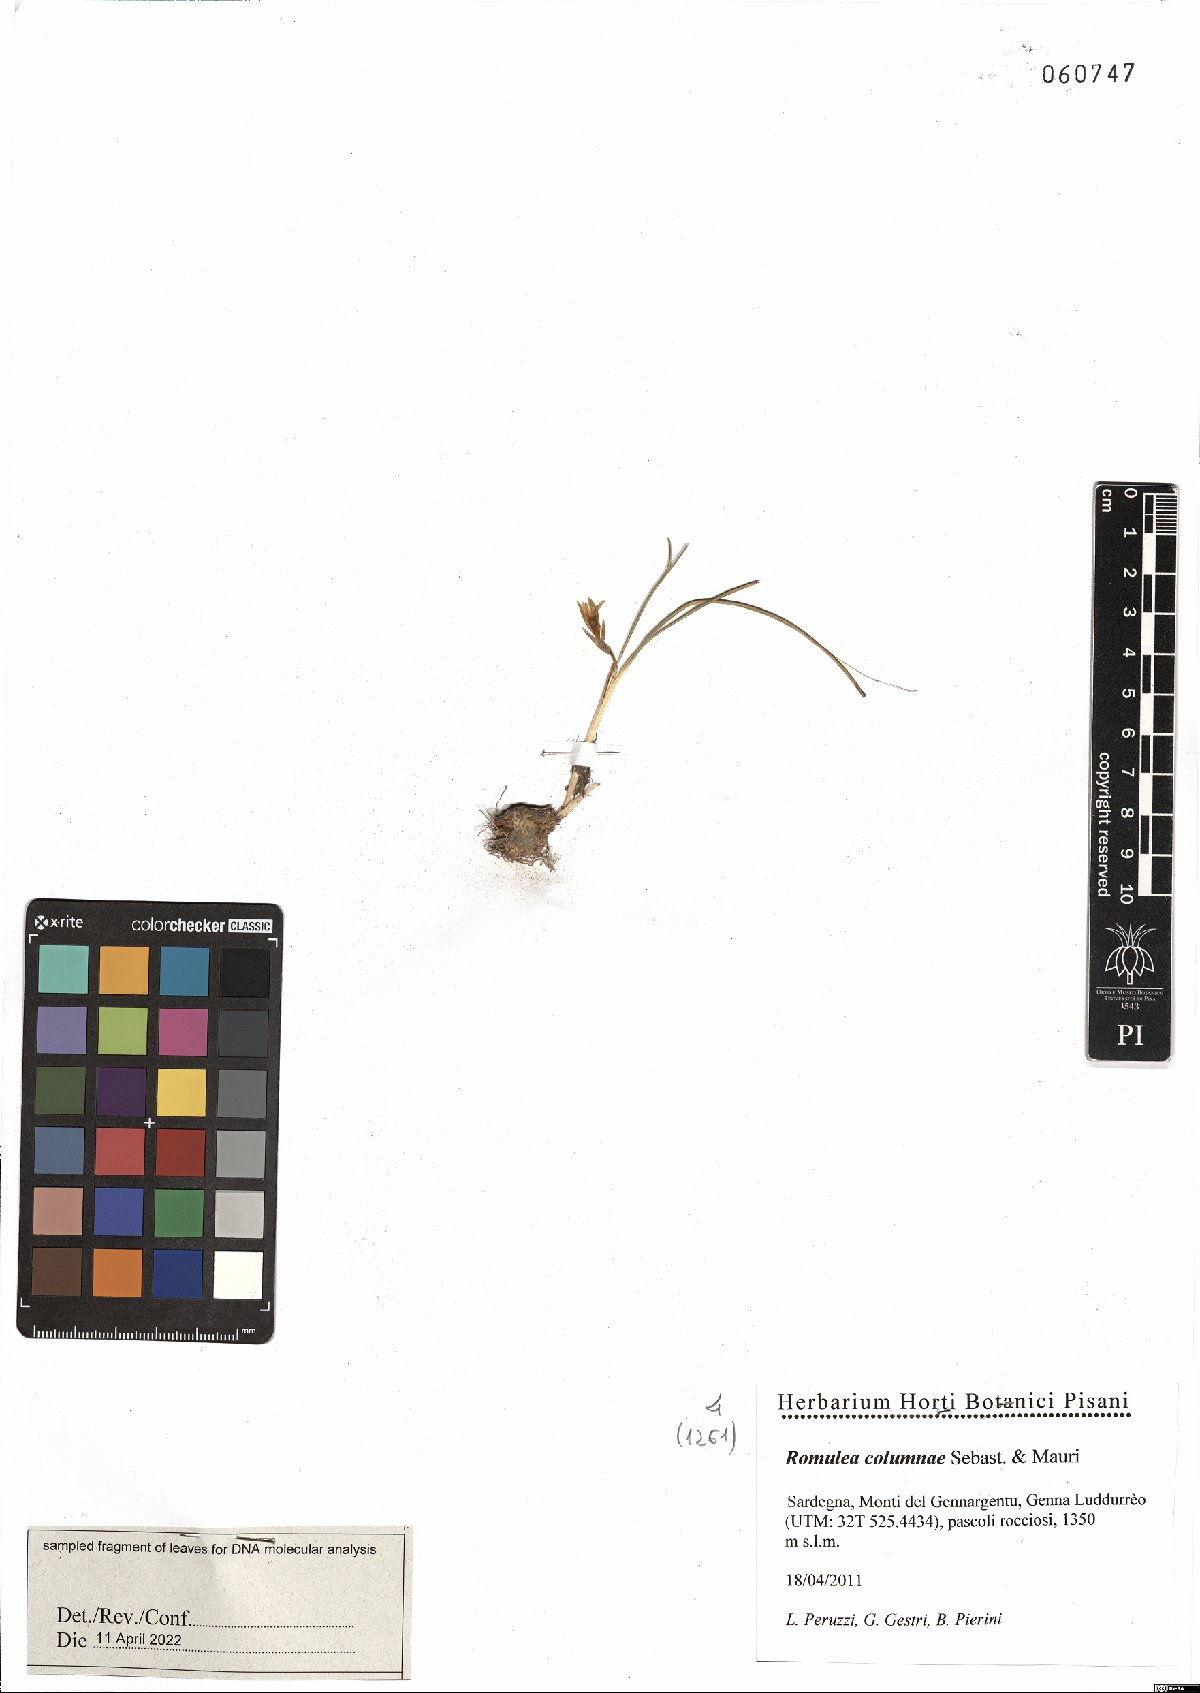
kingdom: Plantae
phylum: Tracheophyta
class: Liliopsida
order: Asparagales
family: Iridaceae
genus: Romulea
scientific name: Romulea columnae
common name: Sand-crocus
